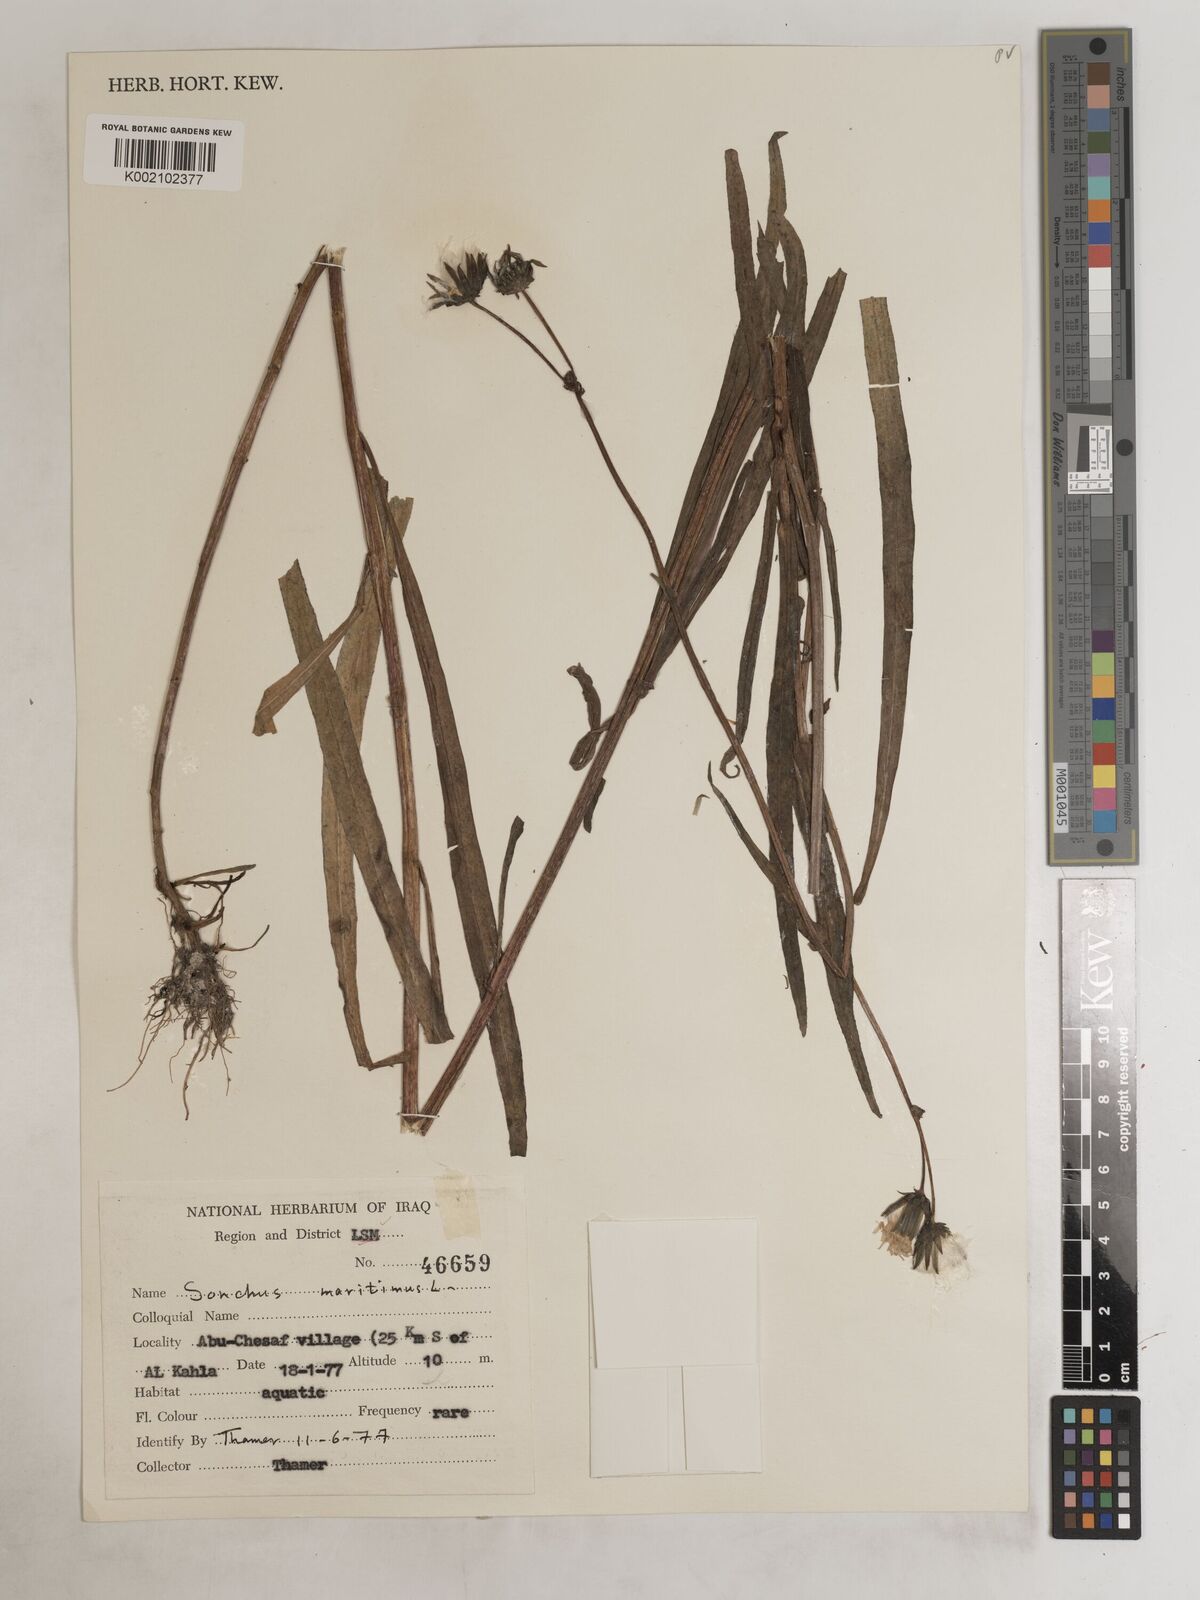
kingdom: Plantae
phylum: Tracheophyta
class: Magnoliopsida
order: Asterales
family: Asteraceae
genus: Sonchus
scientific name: Sonchus maritimus
